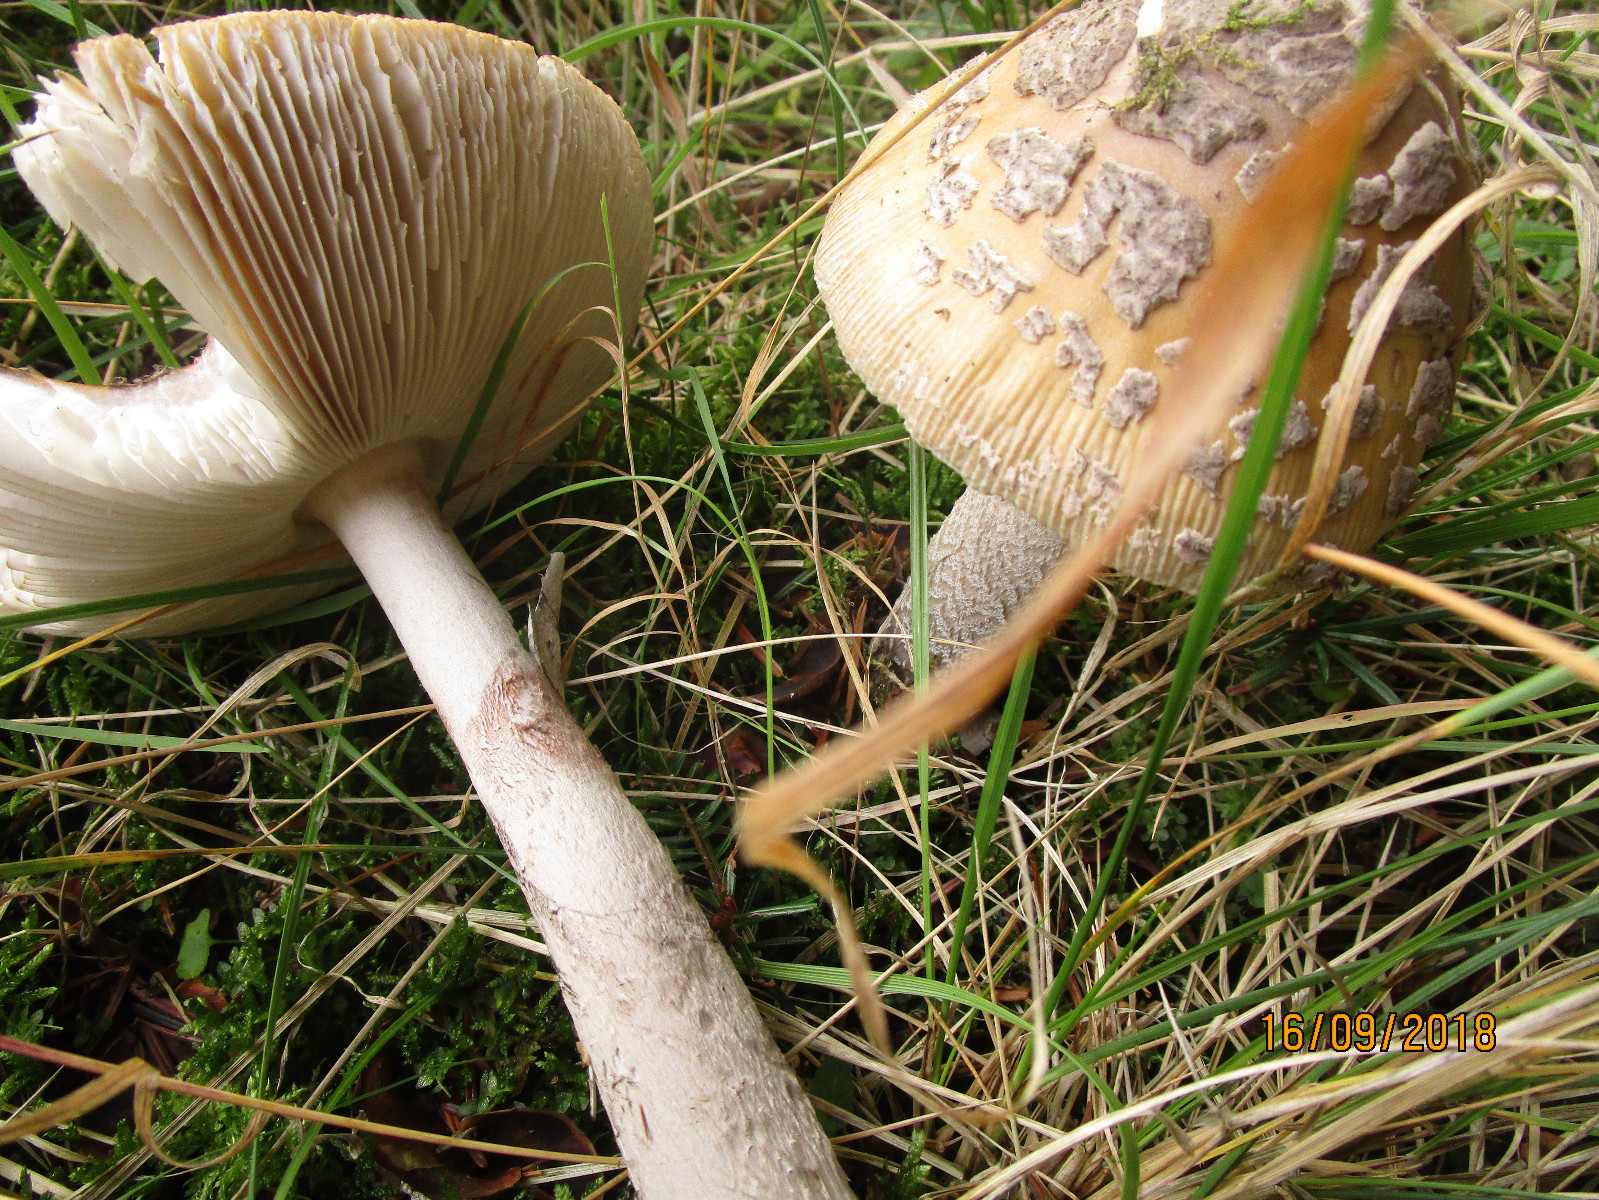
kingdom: Fungi
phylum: Basidiomycota
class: Agaricomycetes
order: Agaricales
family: Amanitaceae
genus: Amanita
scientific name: Amanita ceciliae
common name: stor kam-fluesvamp
